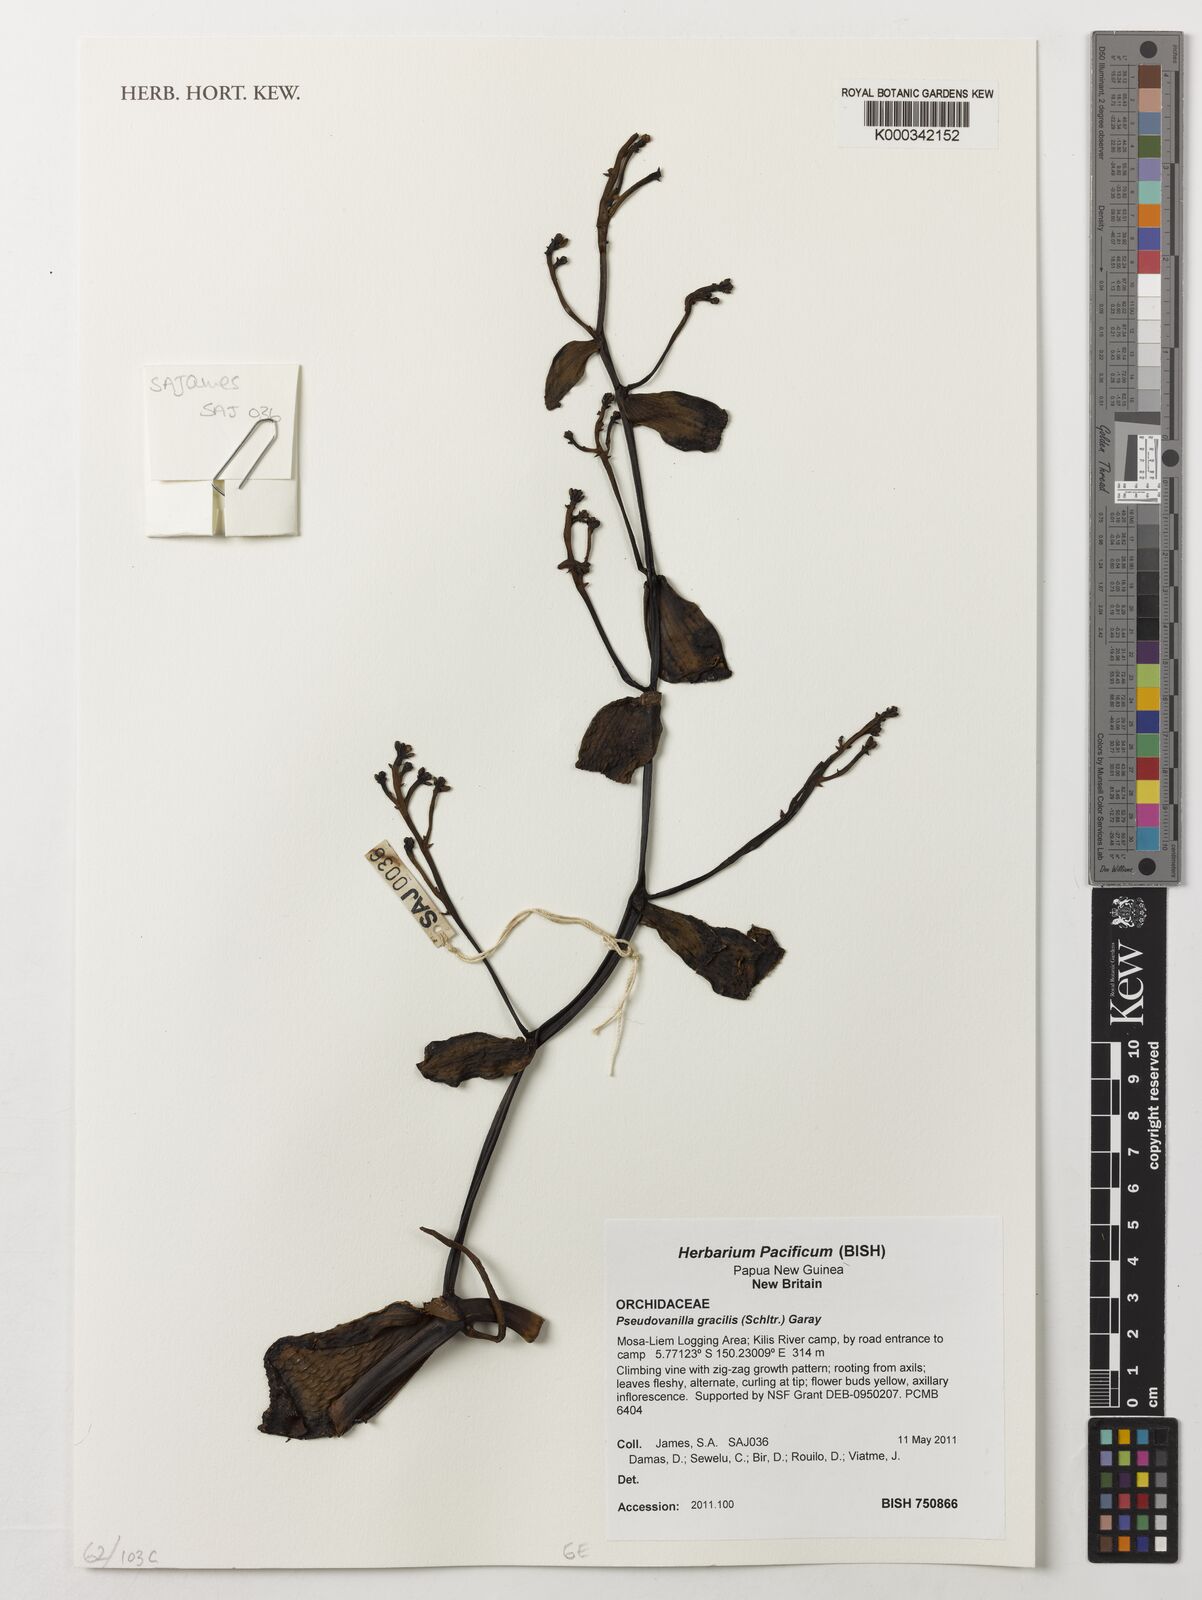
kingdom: Plantae
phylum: Tracheophyta
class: Liliopsida
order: Asparagales
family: Orchidaceae
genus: Pseudovanilla
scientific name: Pseudovanilla gracilis
